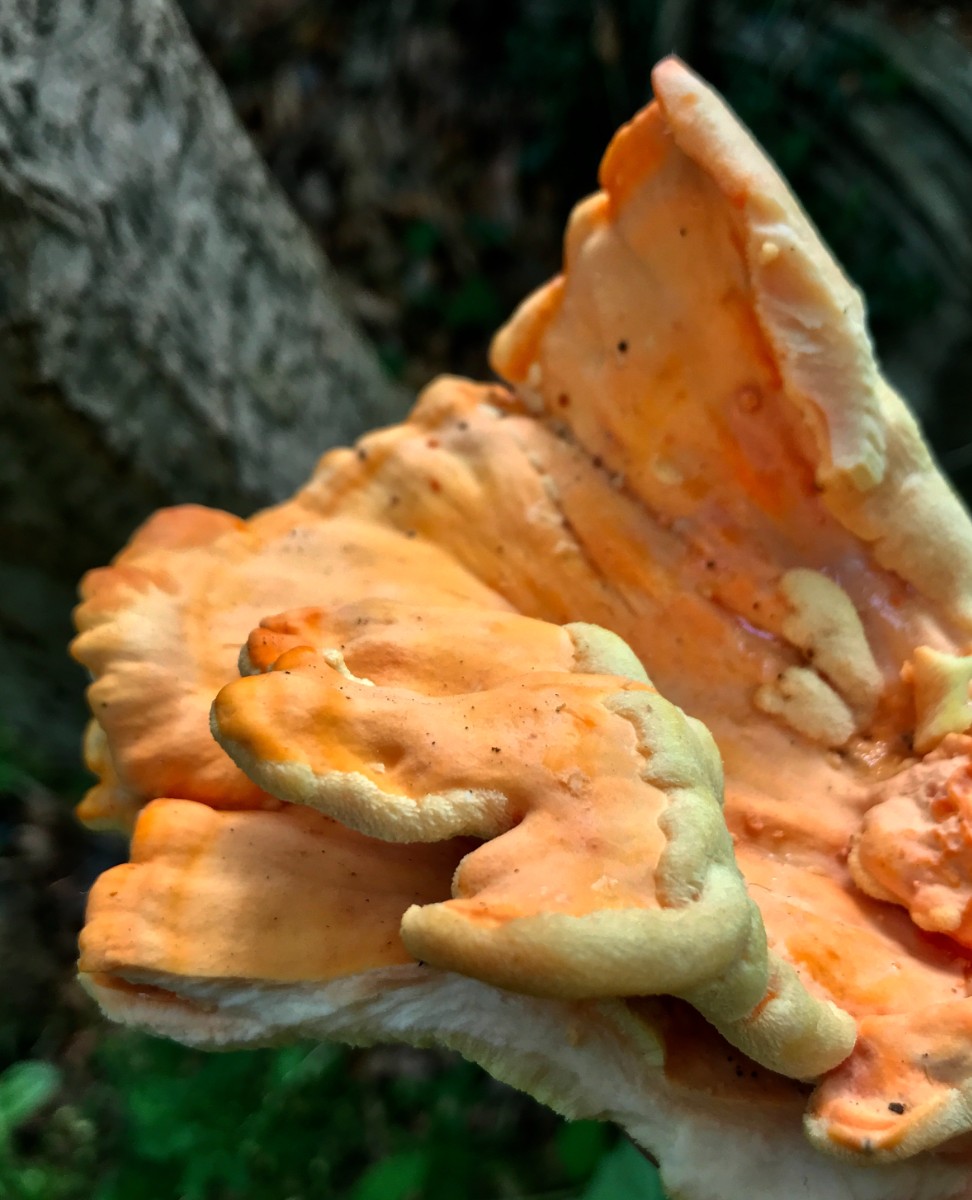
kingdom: Fungi
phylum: Basidiomycota
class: Agaricomycetes
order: Polyporales
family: Laetiporaceae
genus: Laetiporus
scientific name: Laetiporus sulphureus
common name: svovlporesvamp
